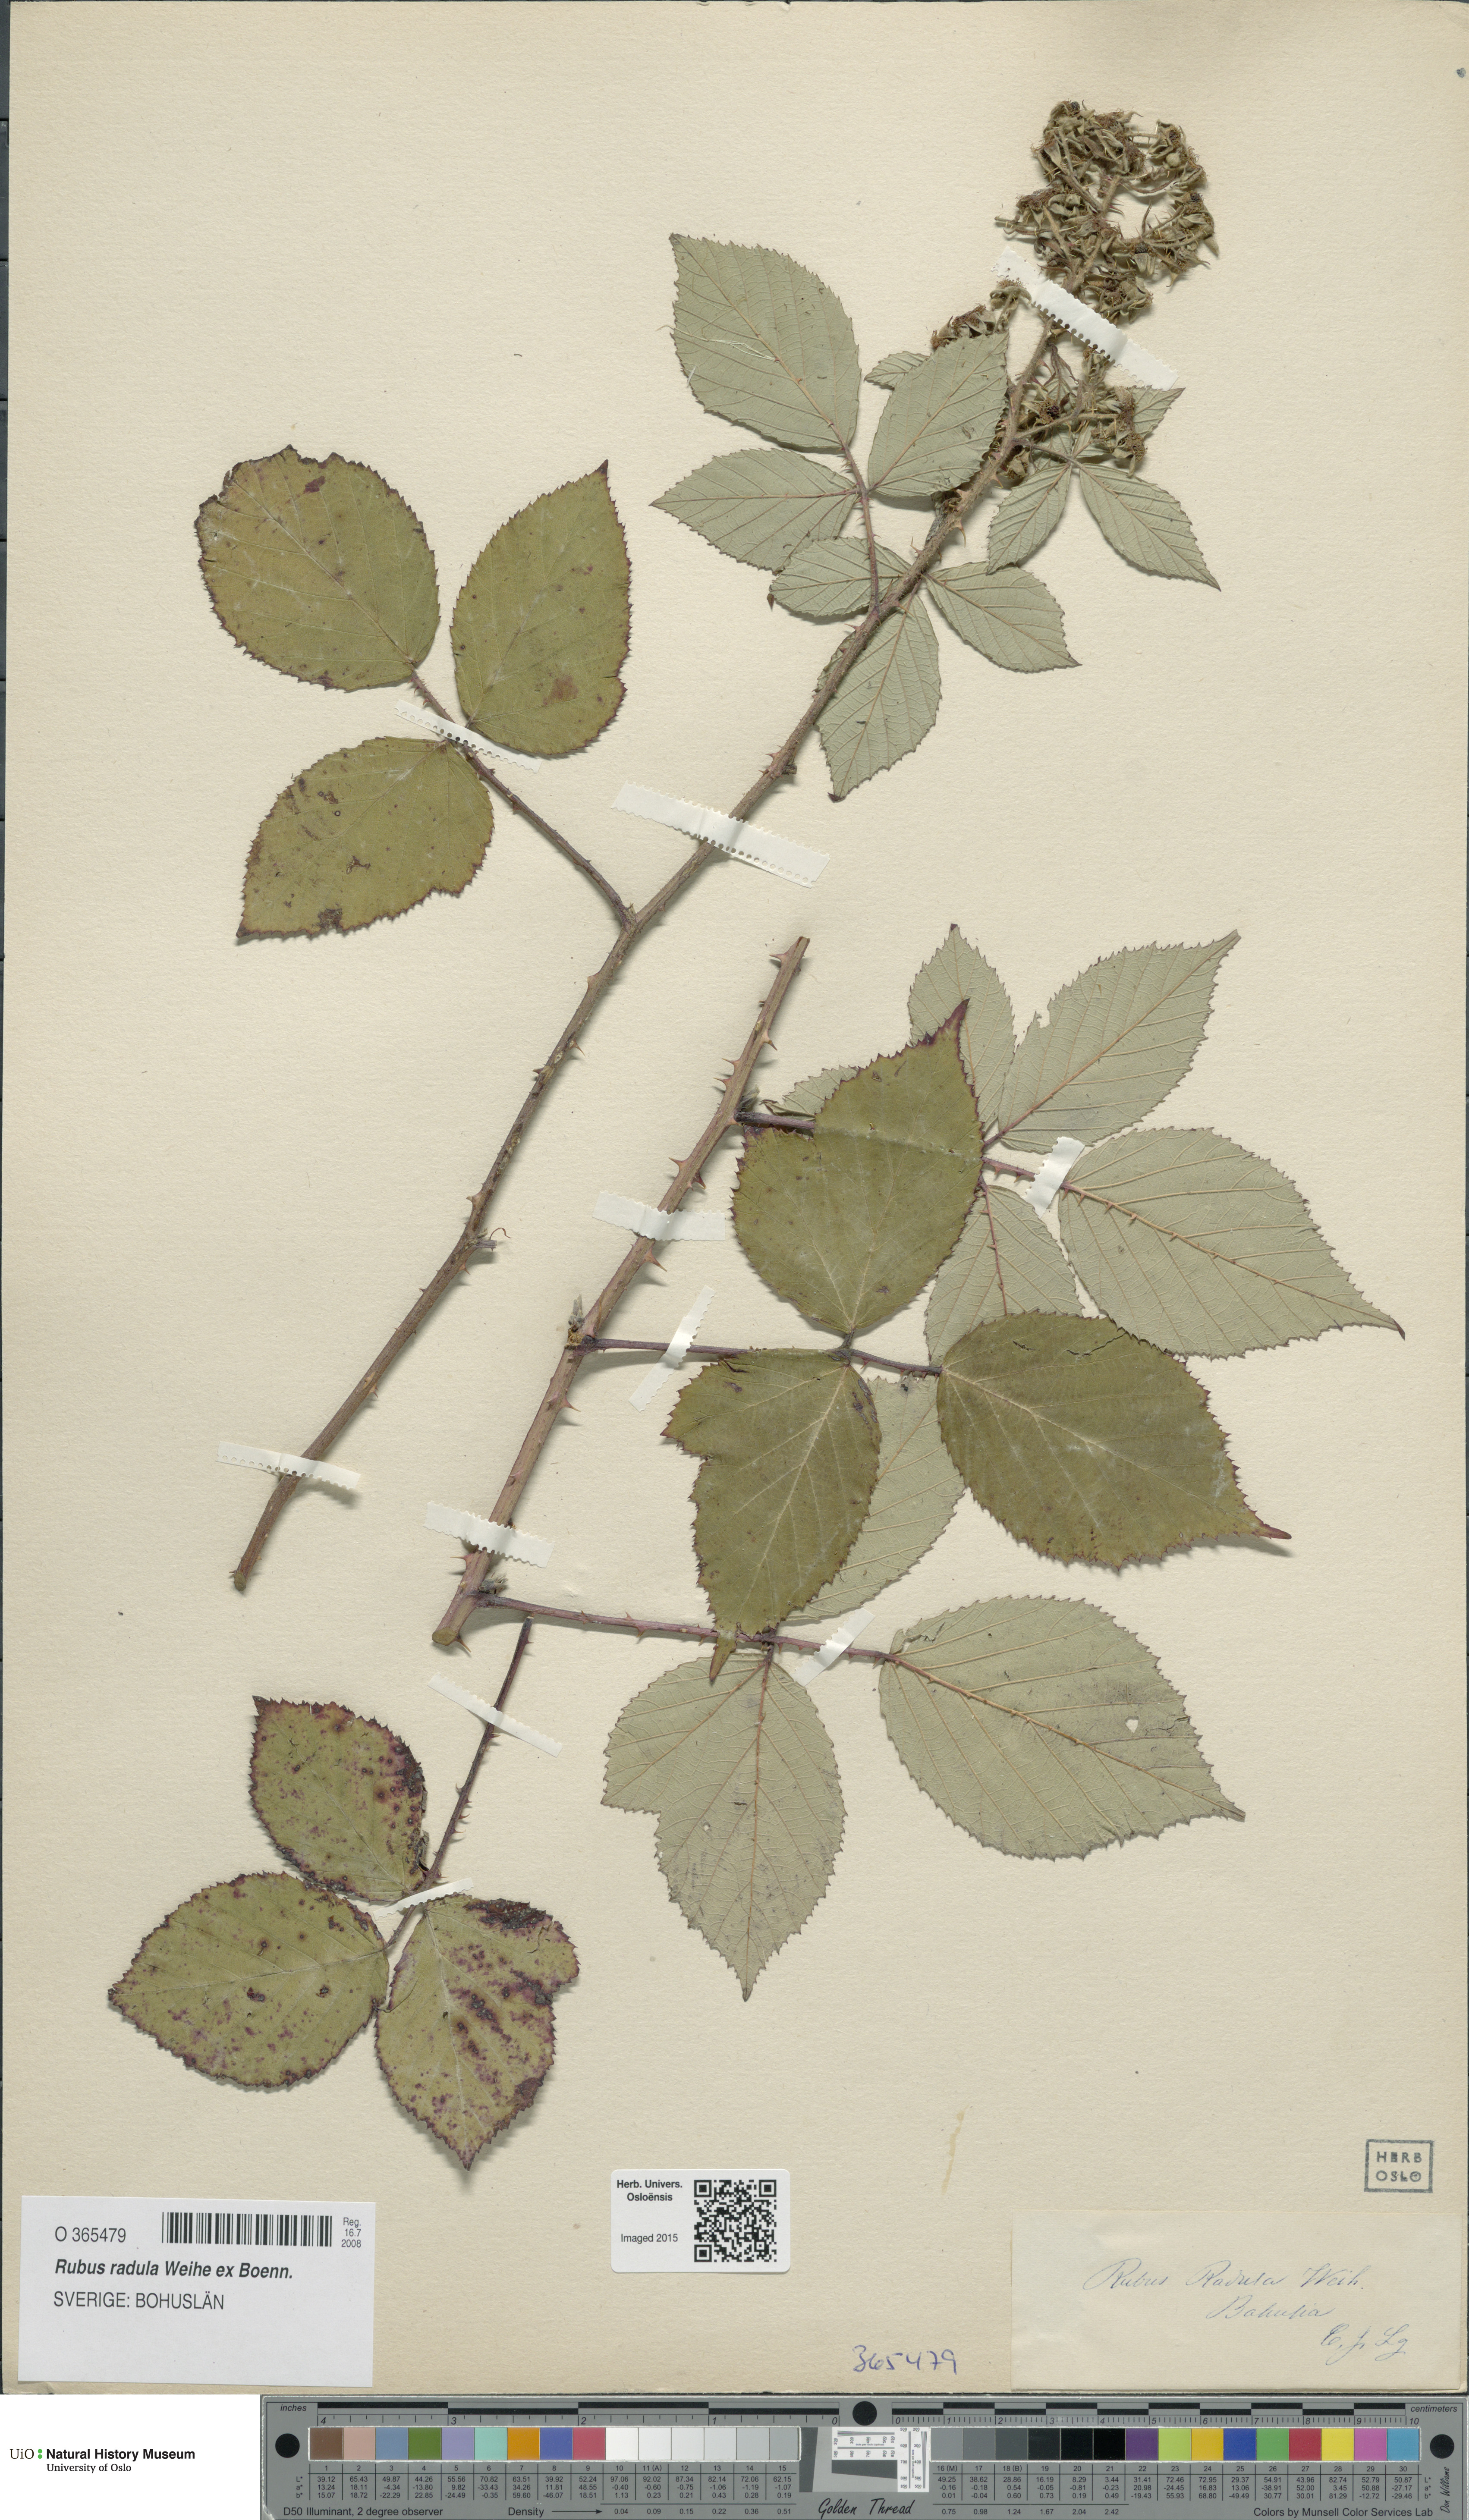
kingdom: Plantae
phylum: Tracheophyta
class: Magnoliopsida
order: Rosales
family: Rosaceae
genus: Rubus
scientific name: Rubus radula
